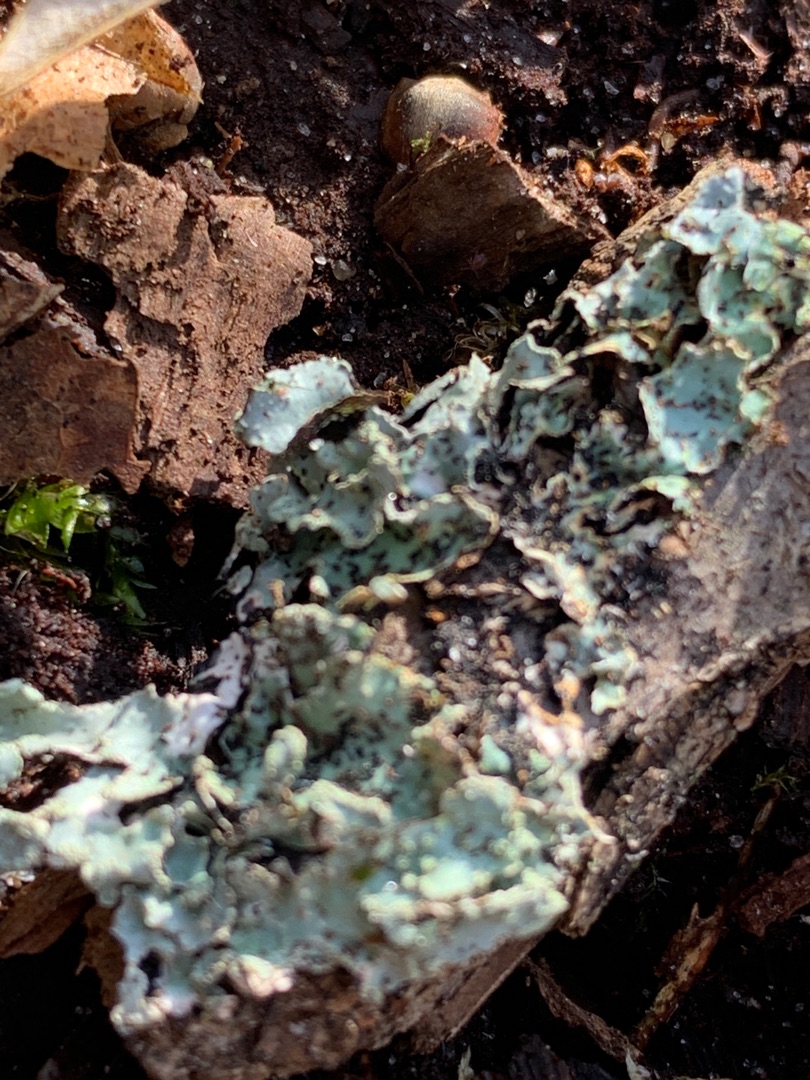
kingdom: Fungi
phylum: Ascomycota
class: Lecanoromycetes
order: Lecanorales
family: Parmeliaceae
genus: Parmelia
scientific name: Parmelia sulcata
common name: Rynket skållav
